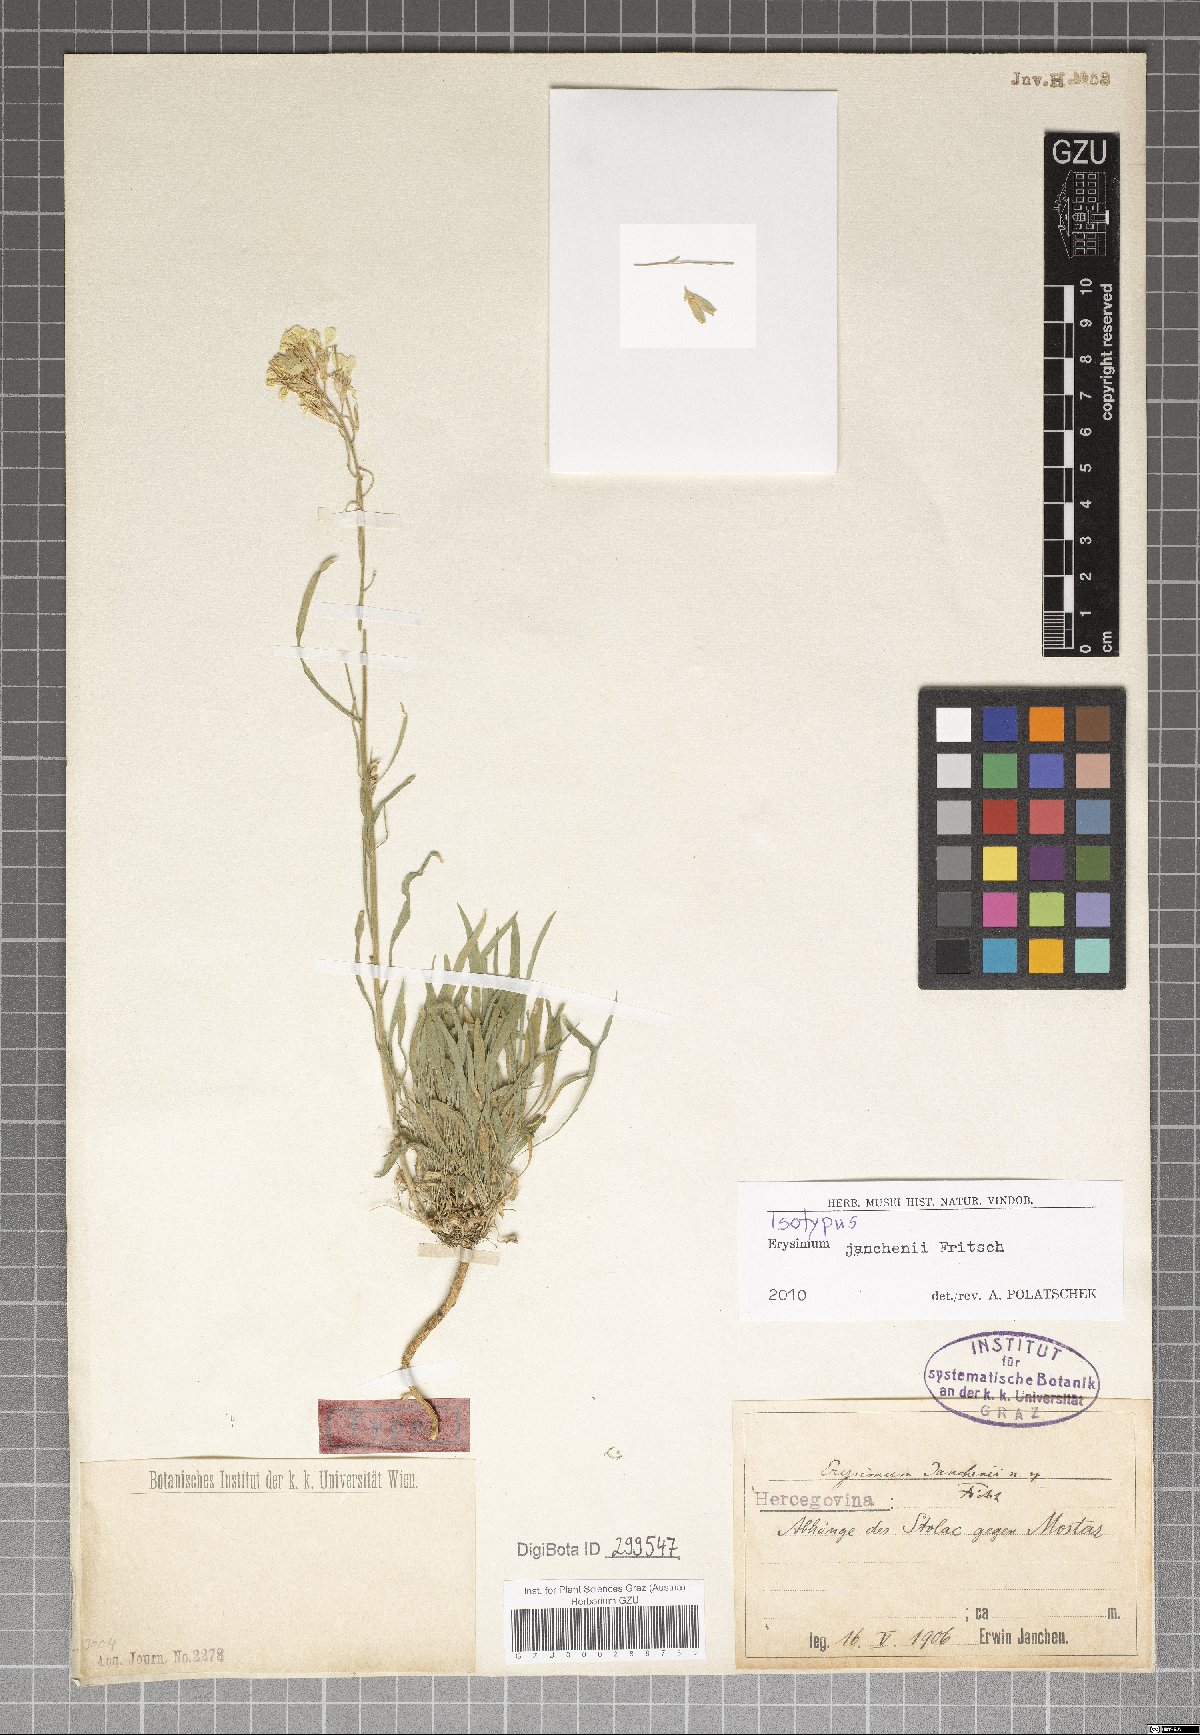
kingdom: Plantae
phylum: Tracheophyta
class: Magnoliopsida
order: Brassicales
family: Brassicaceae
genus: Erysimum
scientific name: Erysimum linariifolium
